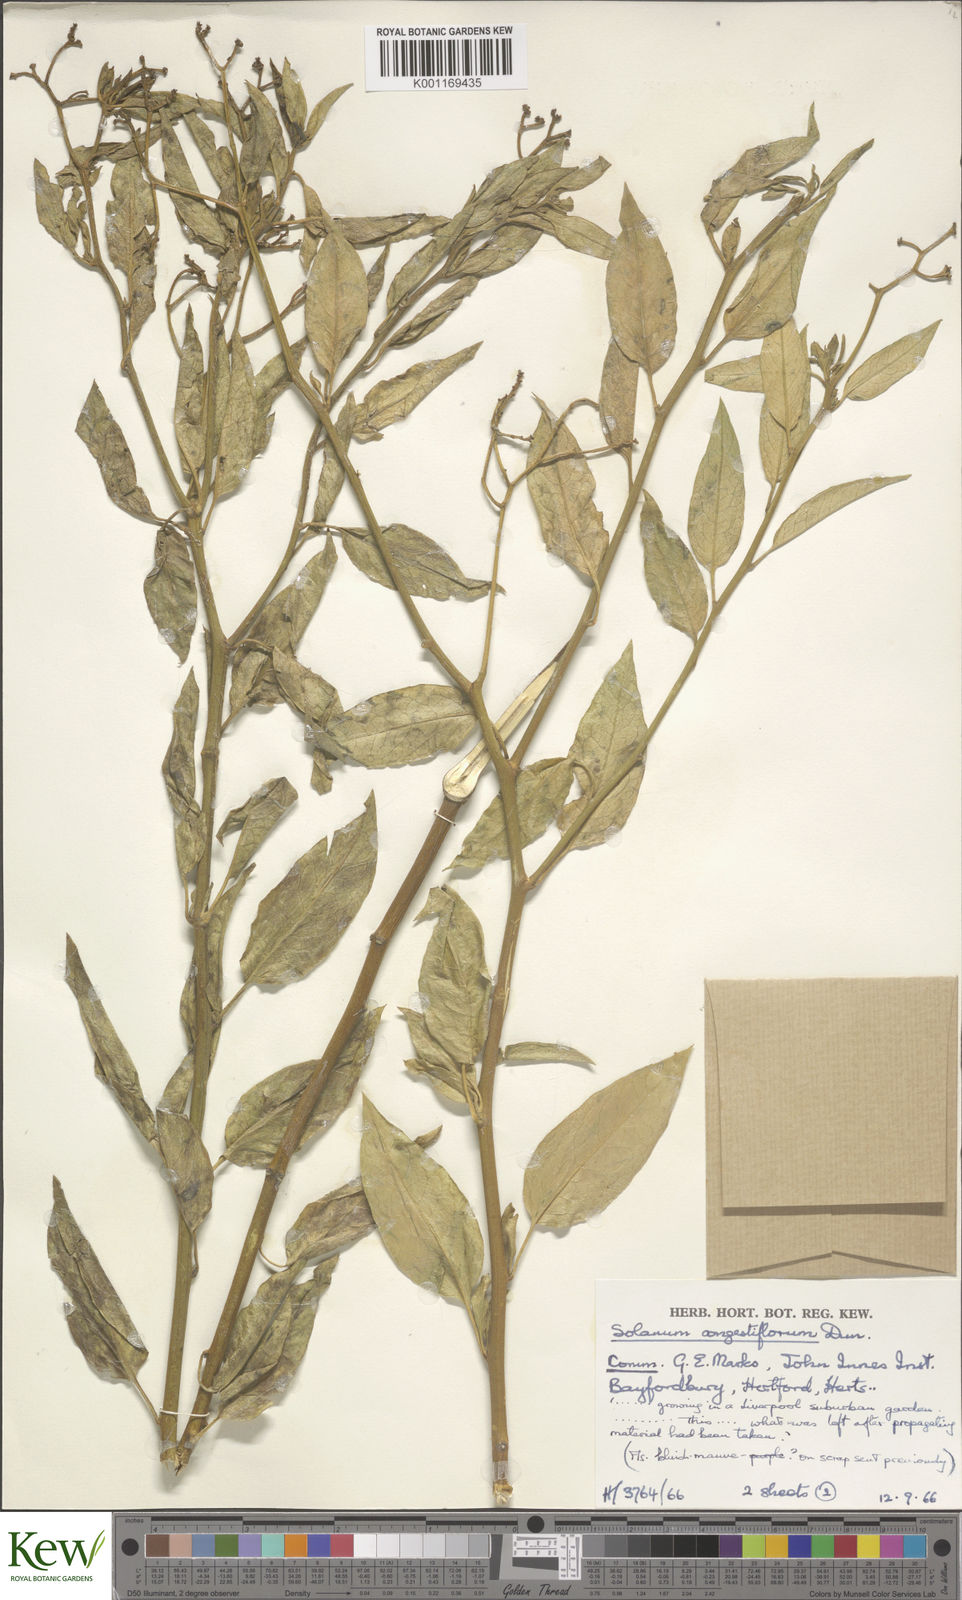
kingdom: Plantae
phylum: Tracheophyta
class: Magnoliopsida
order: Solanales
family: Solanaceae
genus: Solanum
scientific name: Solanum crispum
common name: Chilean nightshade
